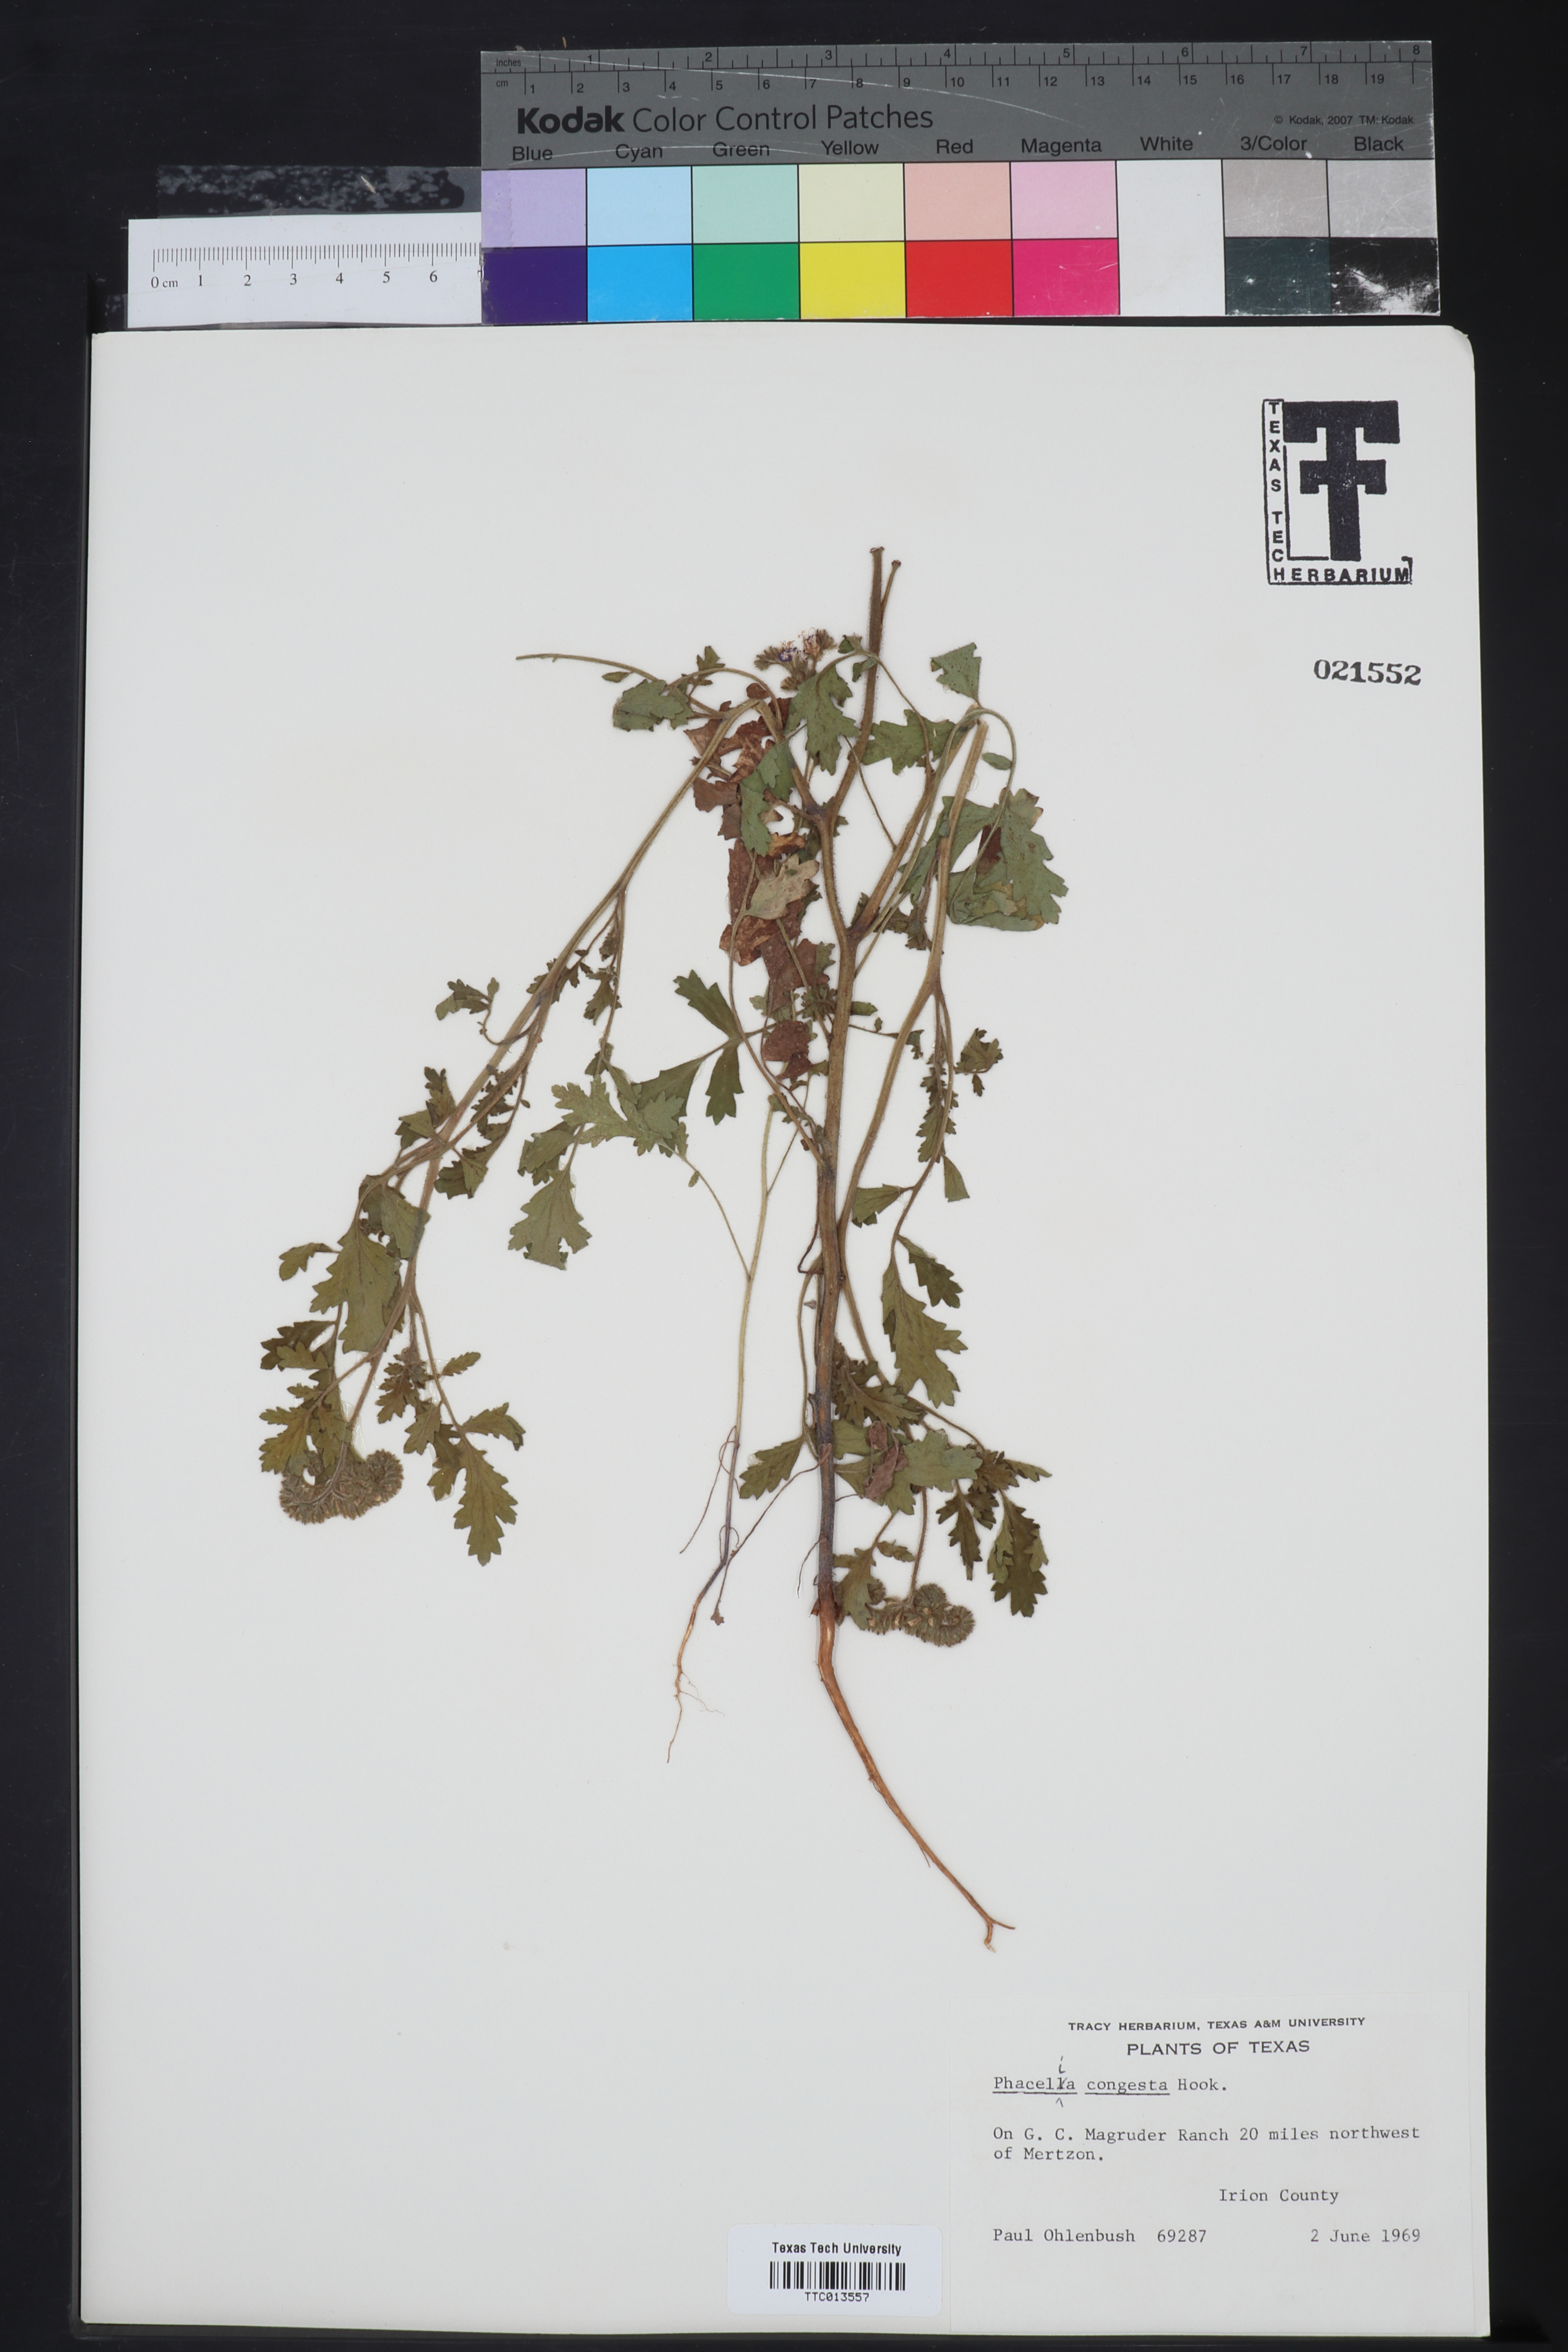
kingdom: Plantae
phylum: Tracheophyta
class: Magnoliopsida
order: Boraginales
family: Hydrophyllaceae
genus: Phacelia
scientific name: Phacelia congesta
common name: Blue curls
